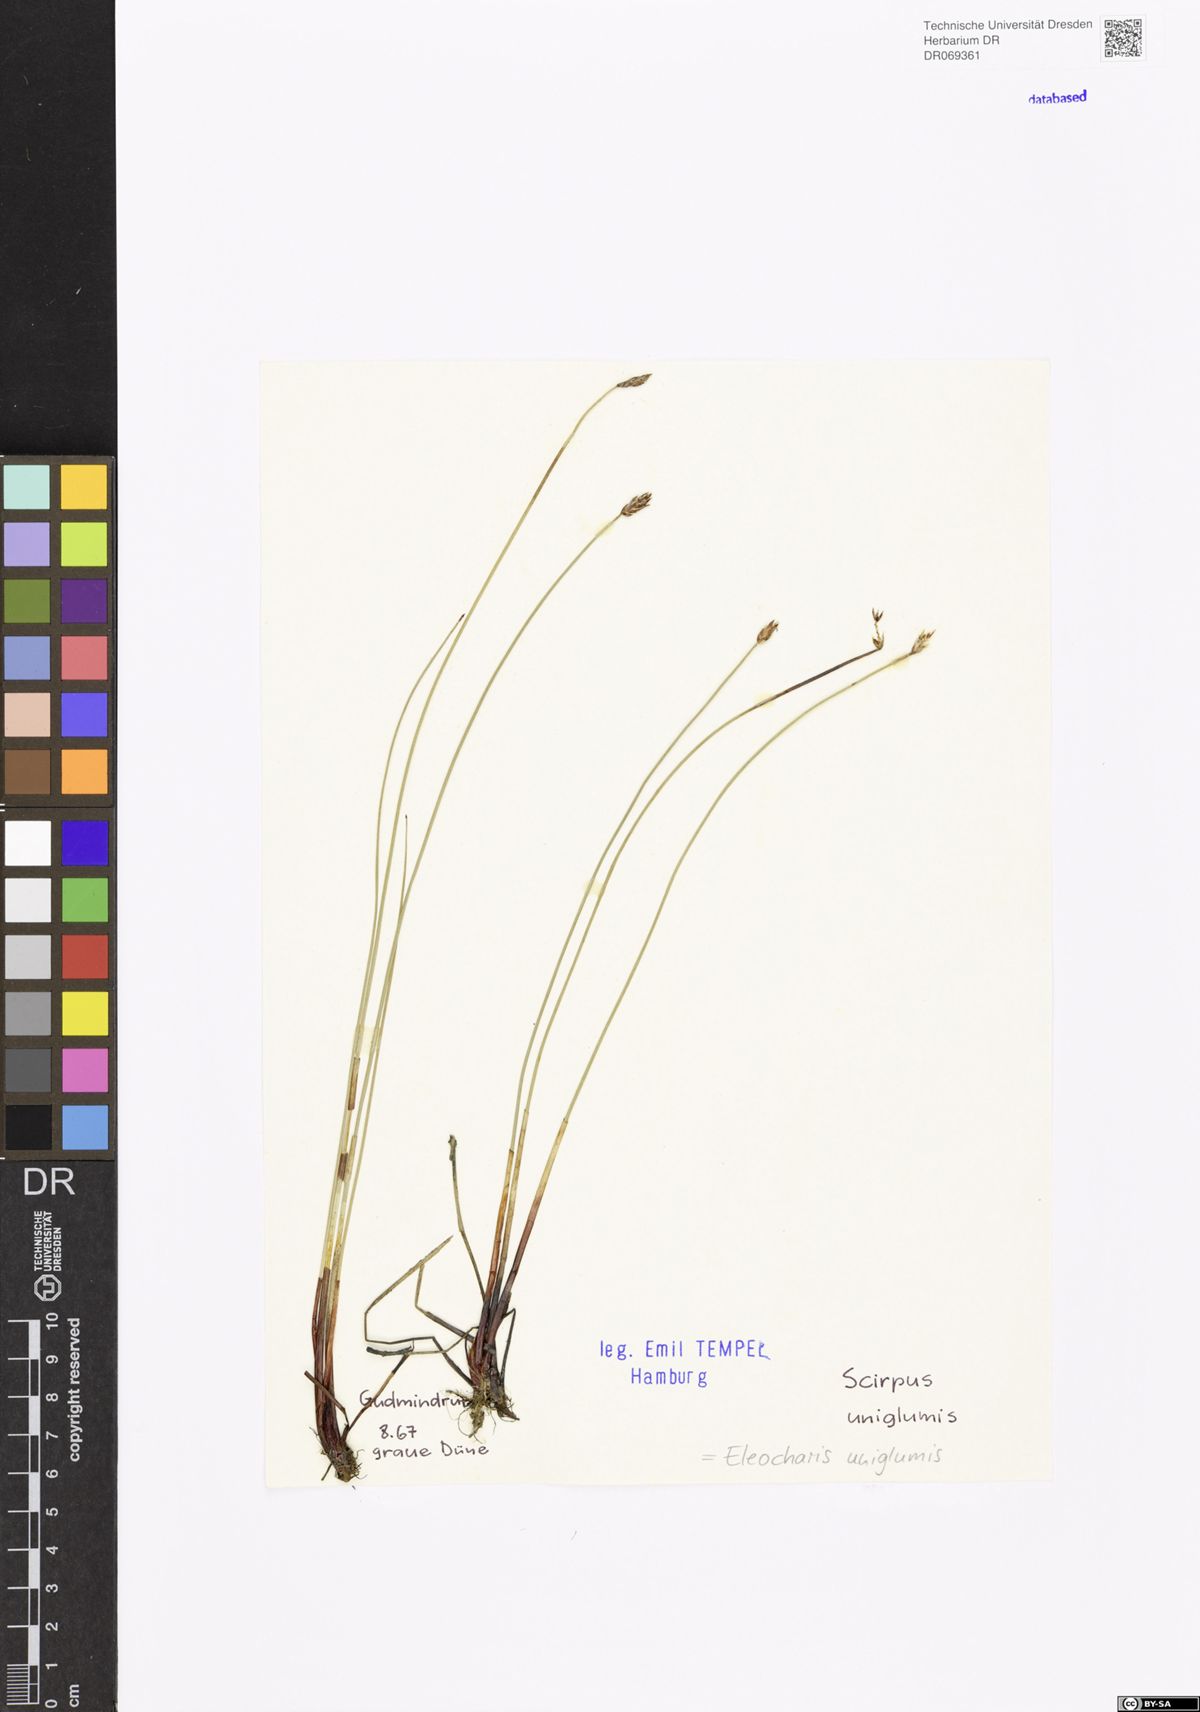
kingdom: Plantae
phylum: Tracheophyta
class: Liliopsida
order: Poales
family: Cyperaceae
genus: Eleocharis
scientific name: Eleocharis uniglumis
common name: Slender spike-rush
